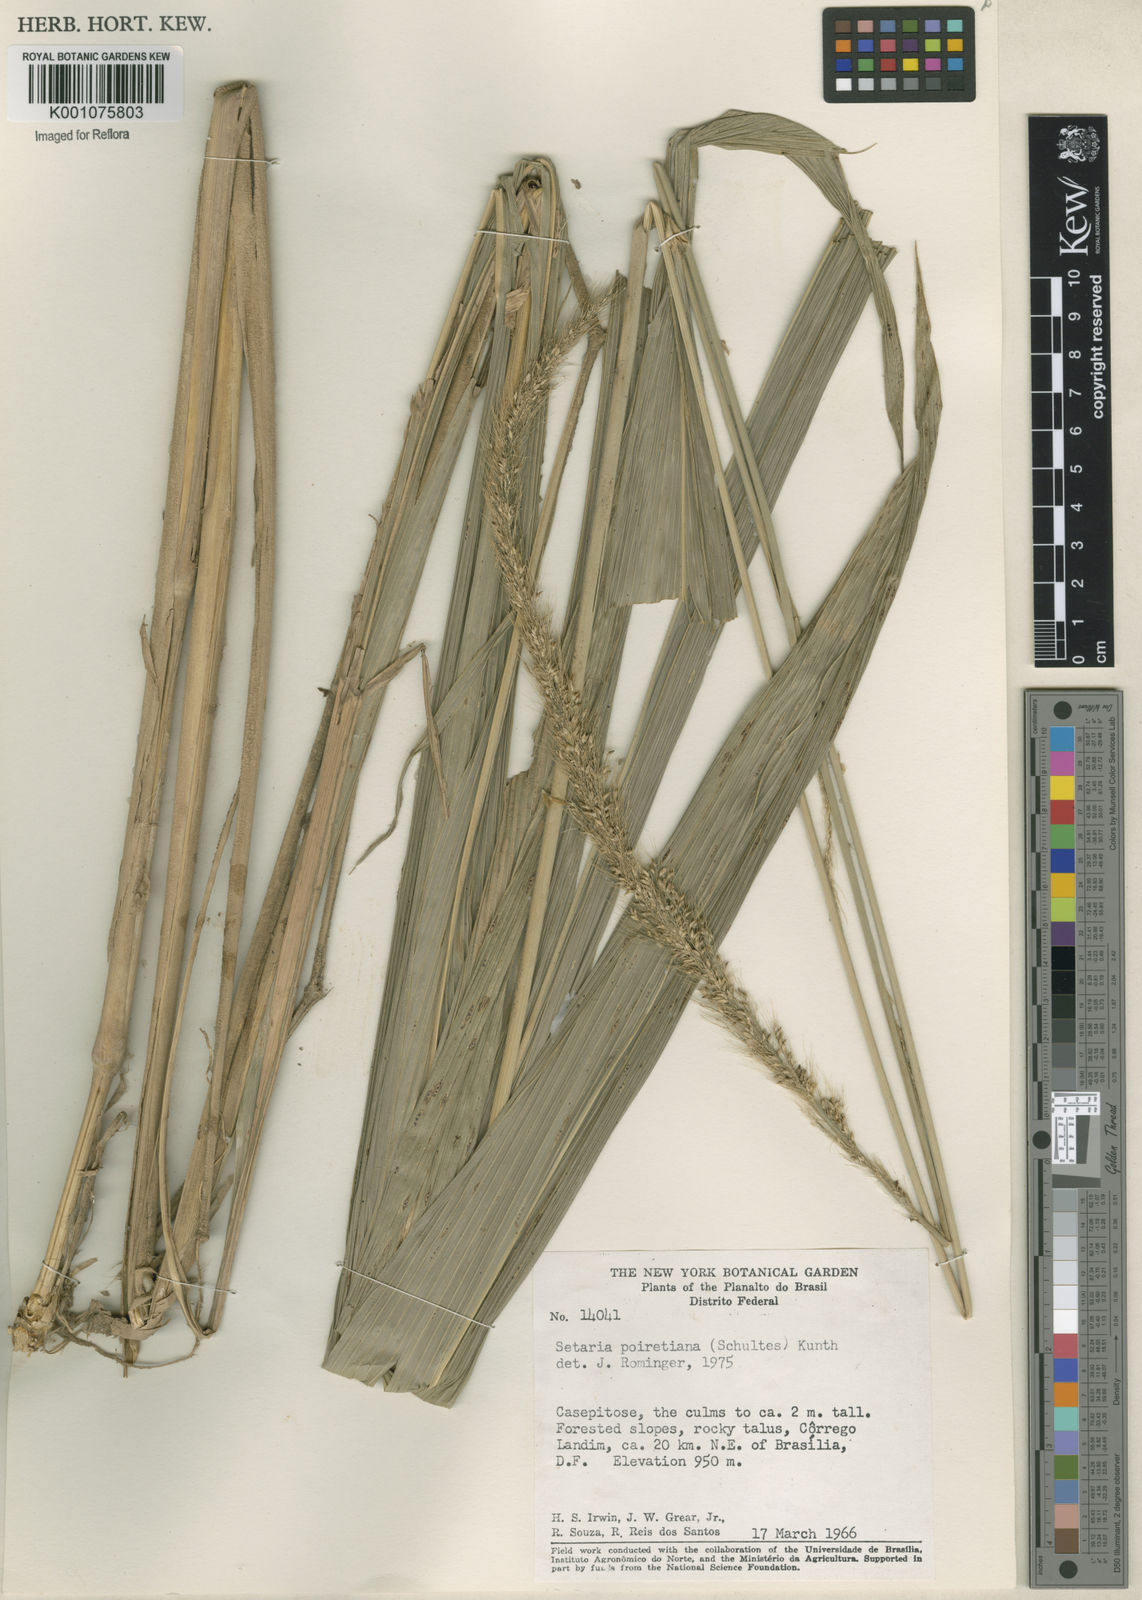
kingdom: Plantae
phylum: Tracheophyta
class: Liliopsida
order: Poales
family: Poaceae
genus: Setaria
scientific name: Setaria megaphylla
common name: Bigleaf bristlegrass
